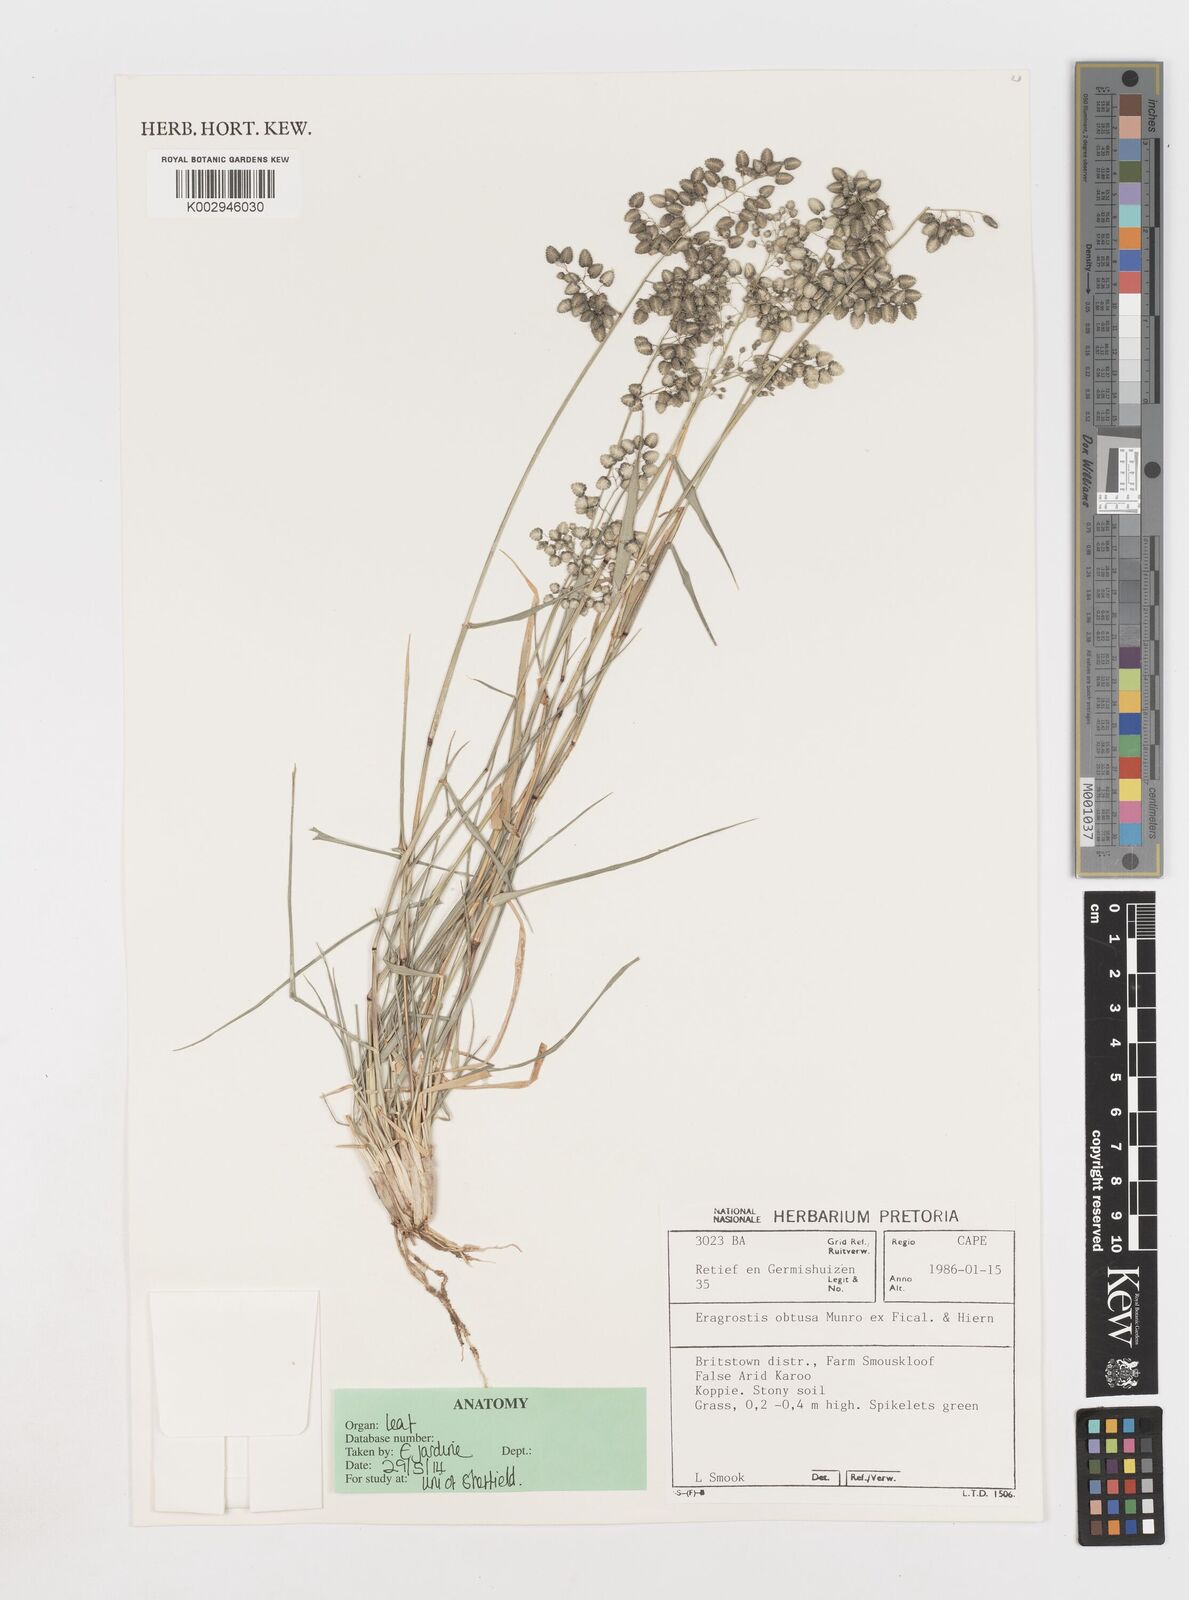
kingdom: Plantae
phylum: Tracheophyta
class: Liliopsida
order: Poales
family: Poaceae
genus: Eragrostis
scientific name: Eragrostis obtusa
